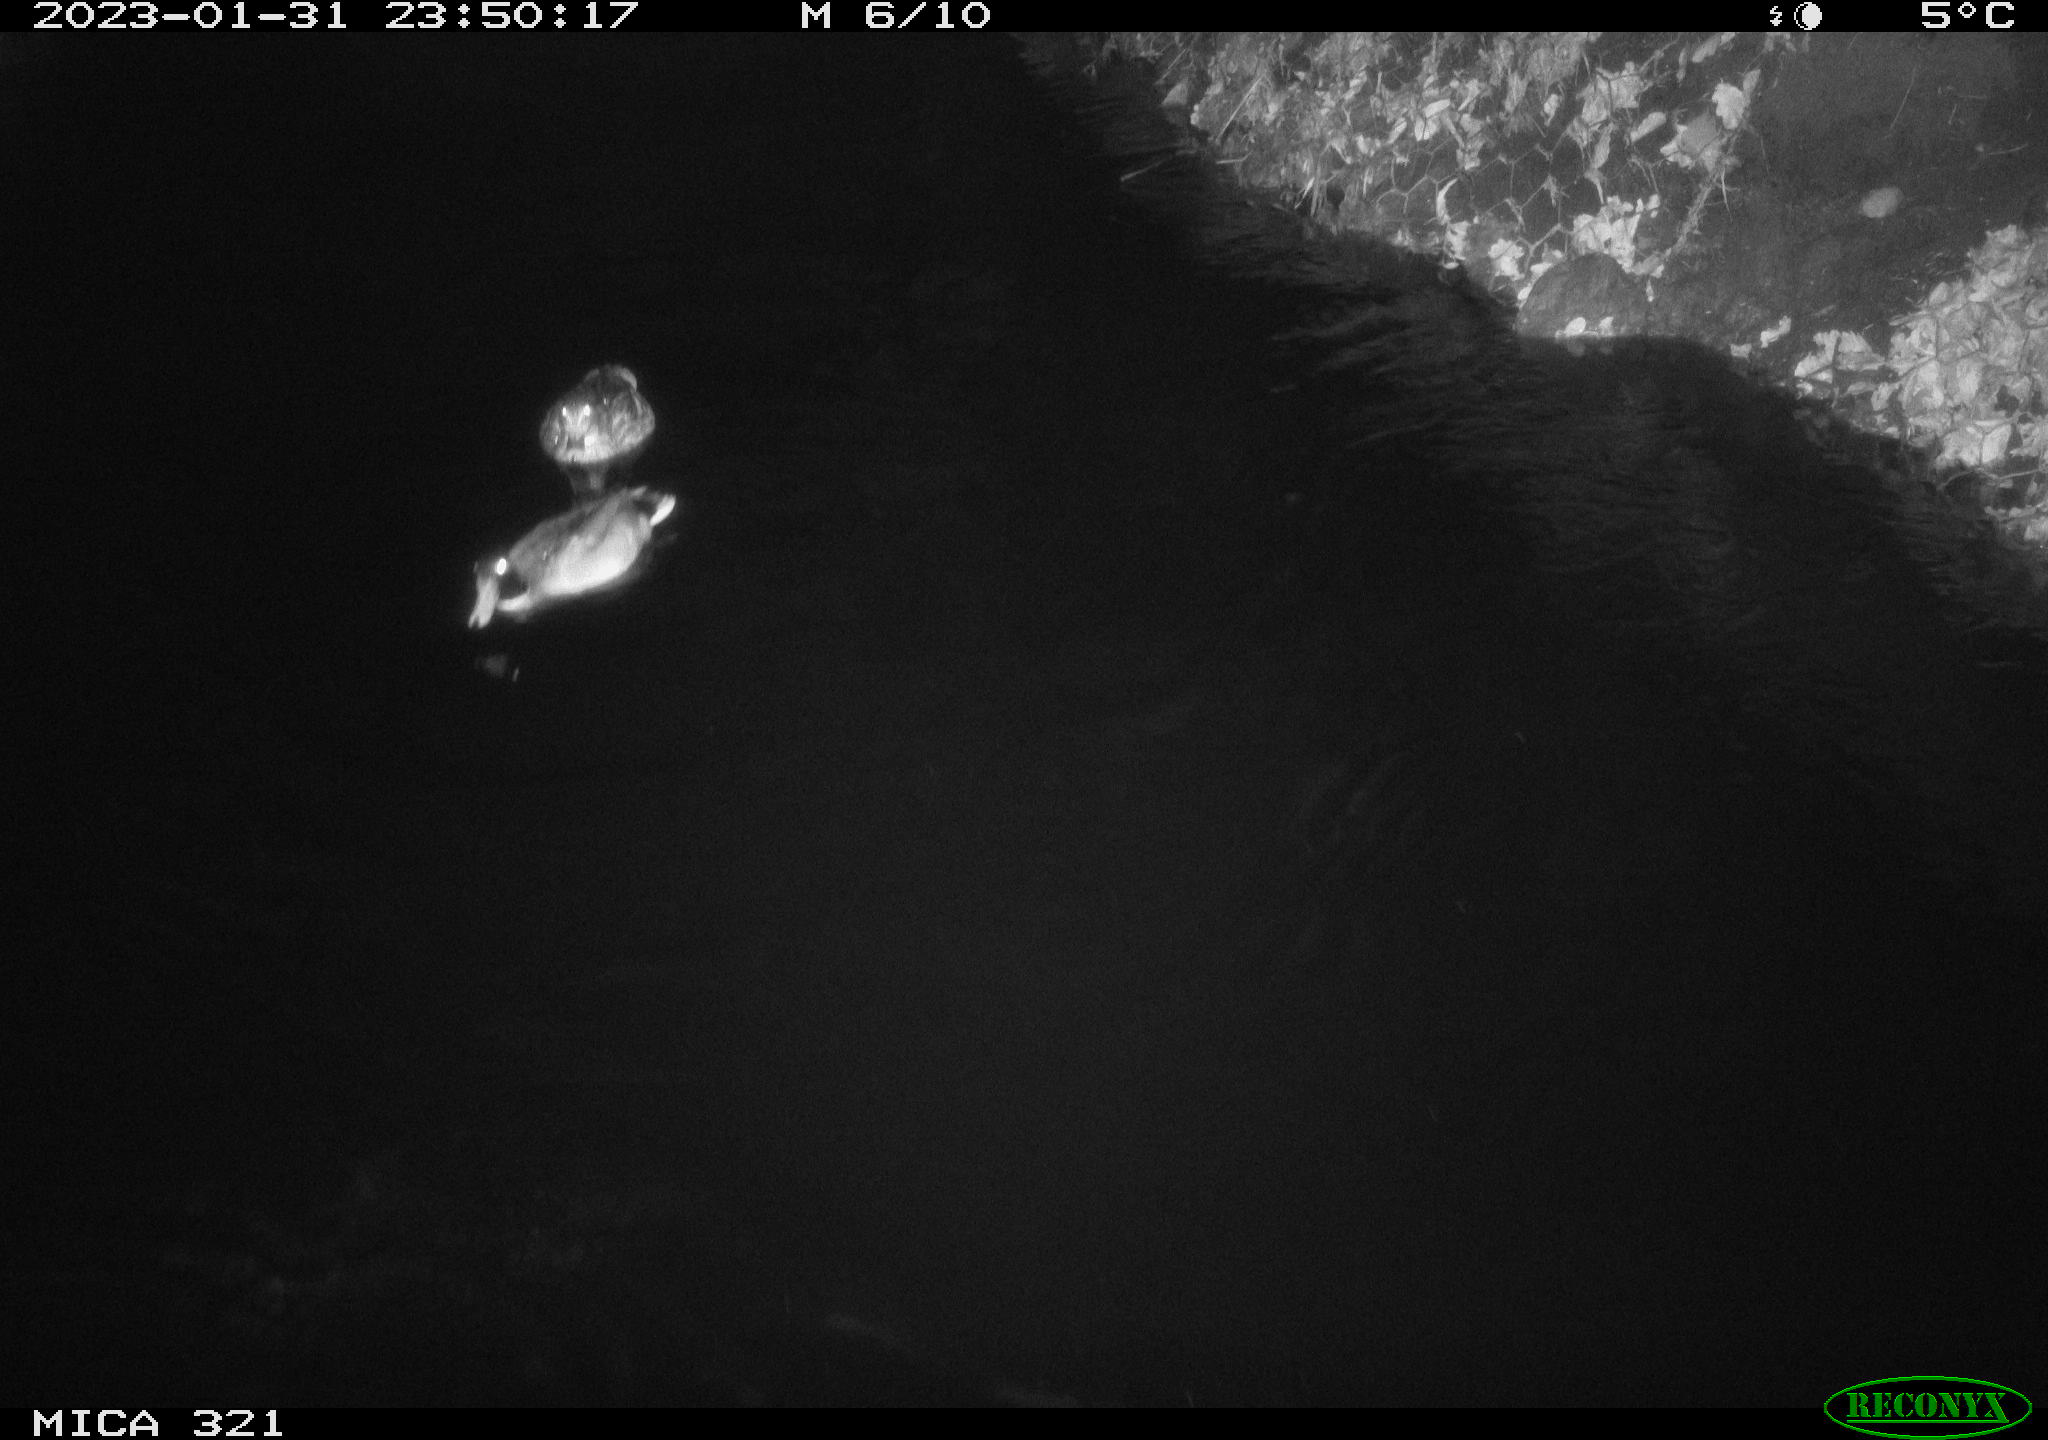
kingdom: Animalia
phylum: Chordata
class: Mammalia
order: Rodentia
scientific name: Rodentia
